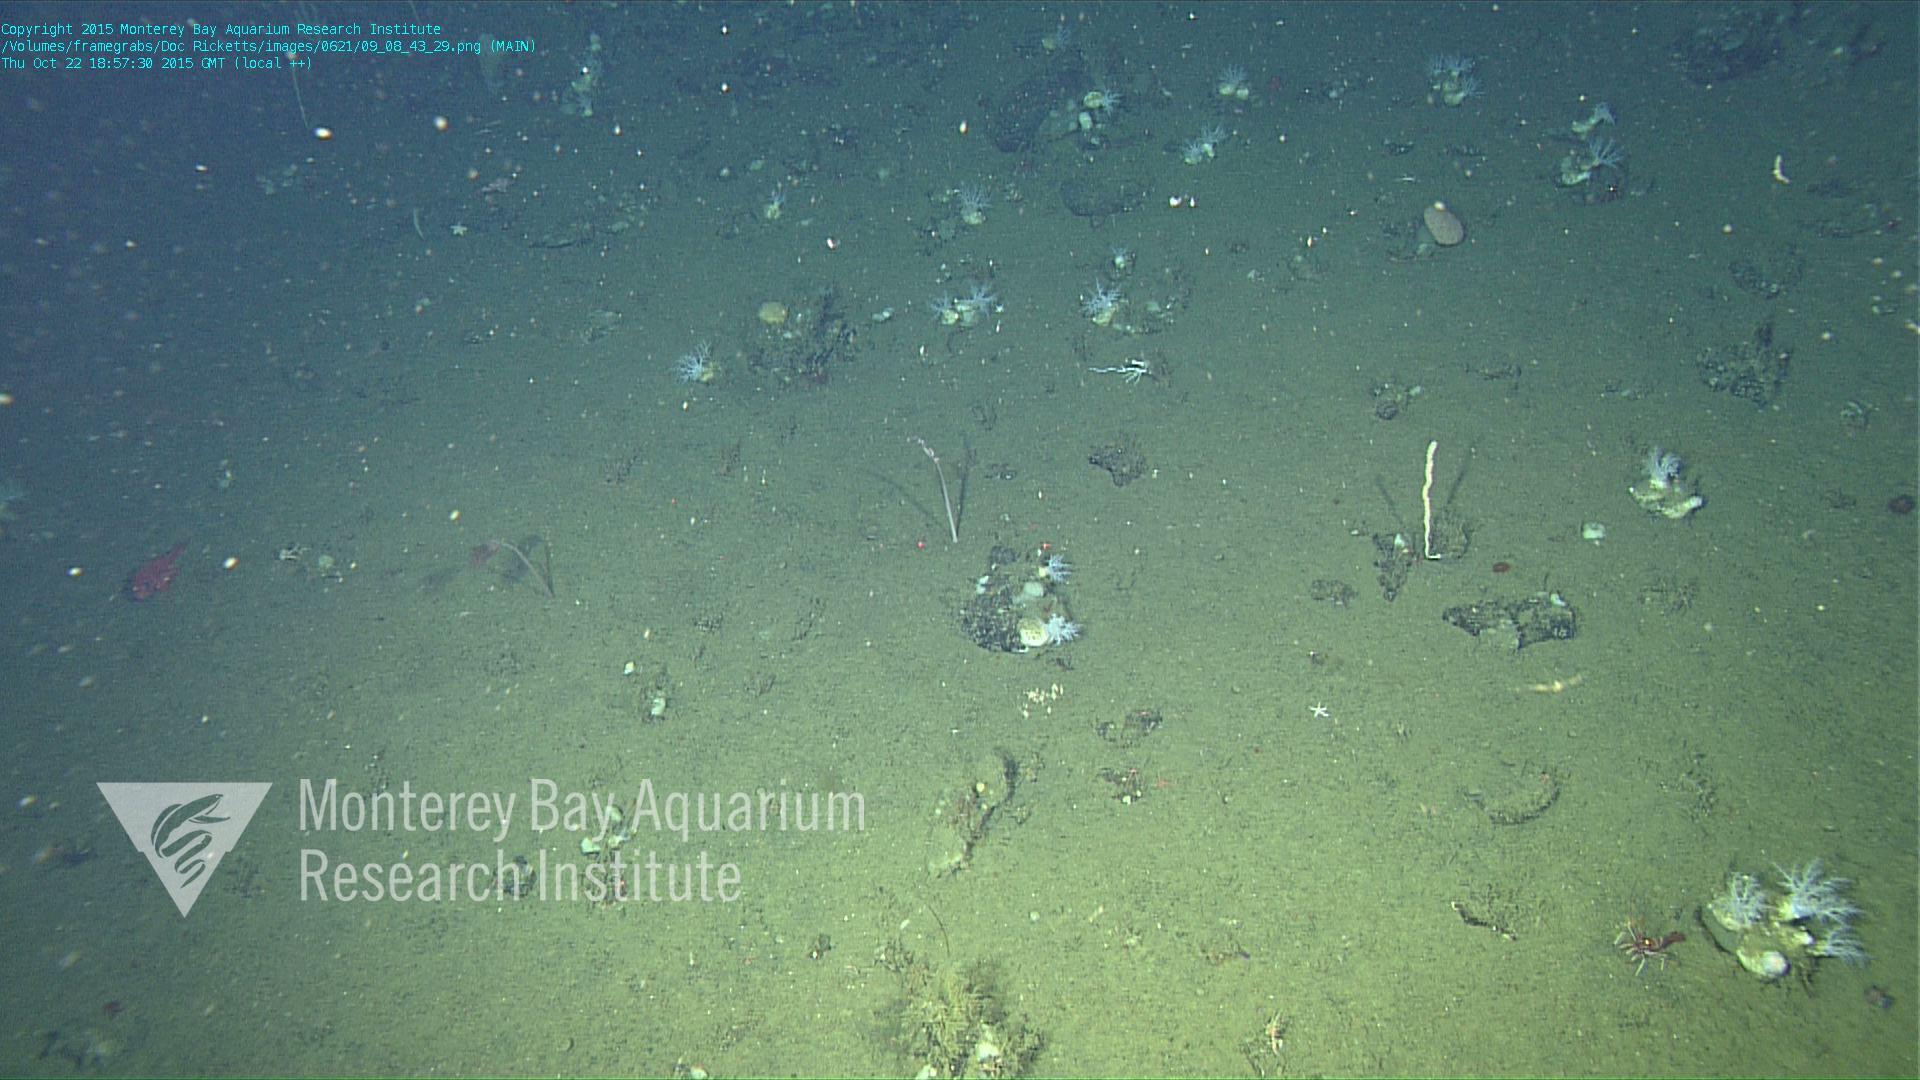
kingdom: Animalia
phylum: Cnidaria
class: Anthozoa
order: Scleralcyonacea
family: Umbellulidae
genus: Umbellula
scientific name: Umbellula
